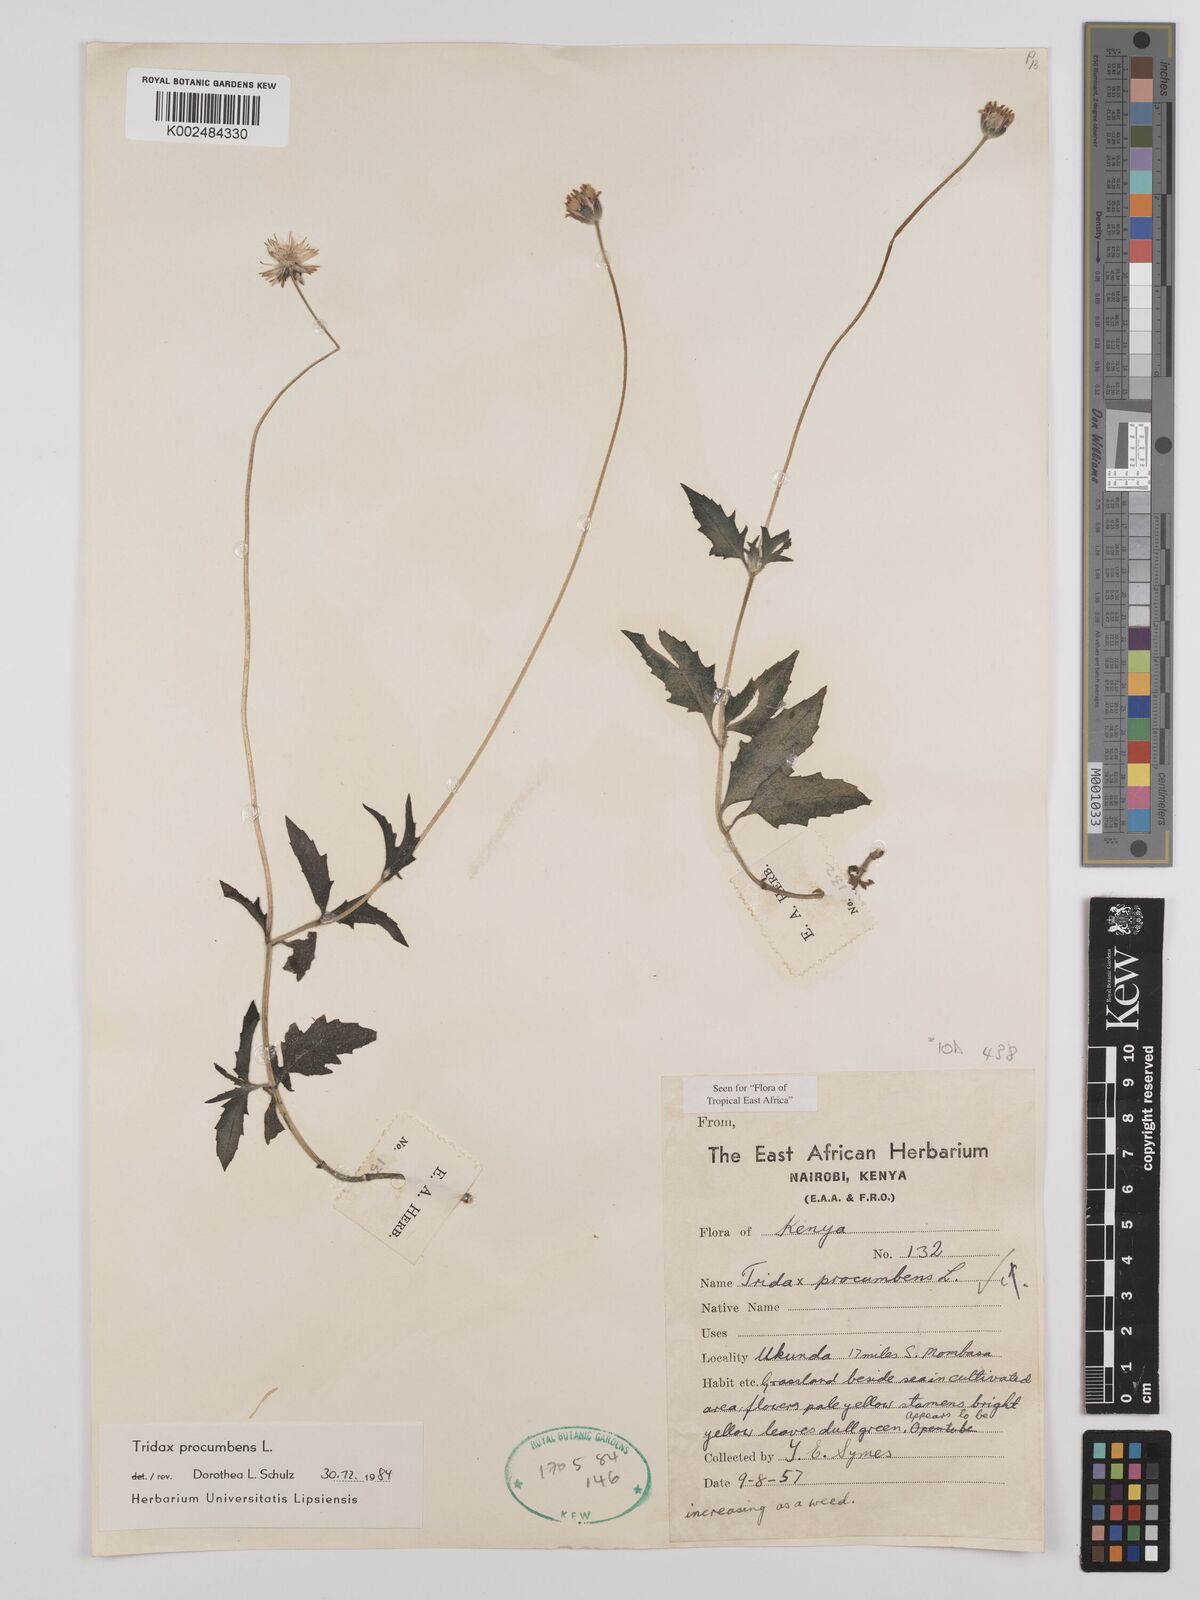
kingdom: Plantae
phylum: Tracheophyta
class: Magnoliopsida
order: Asterales
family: Asteraceae
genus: Tridax
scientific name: Tridax procumbens
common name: Coatbuttons
